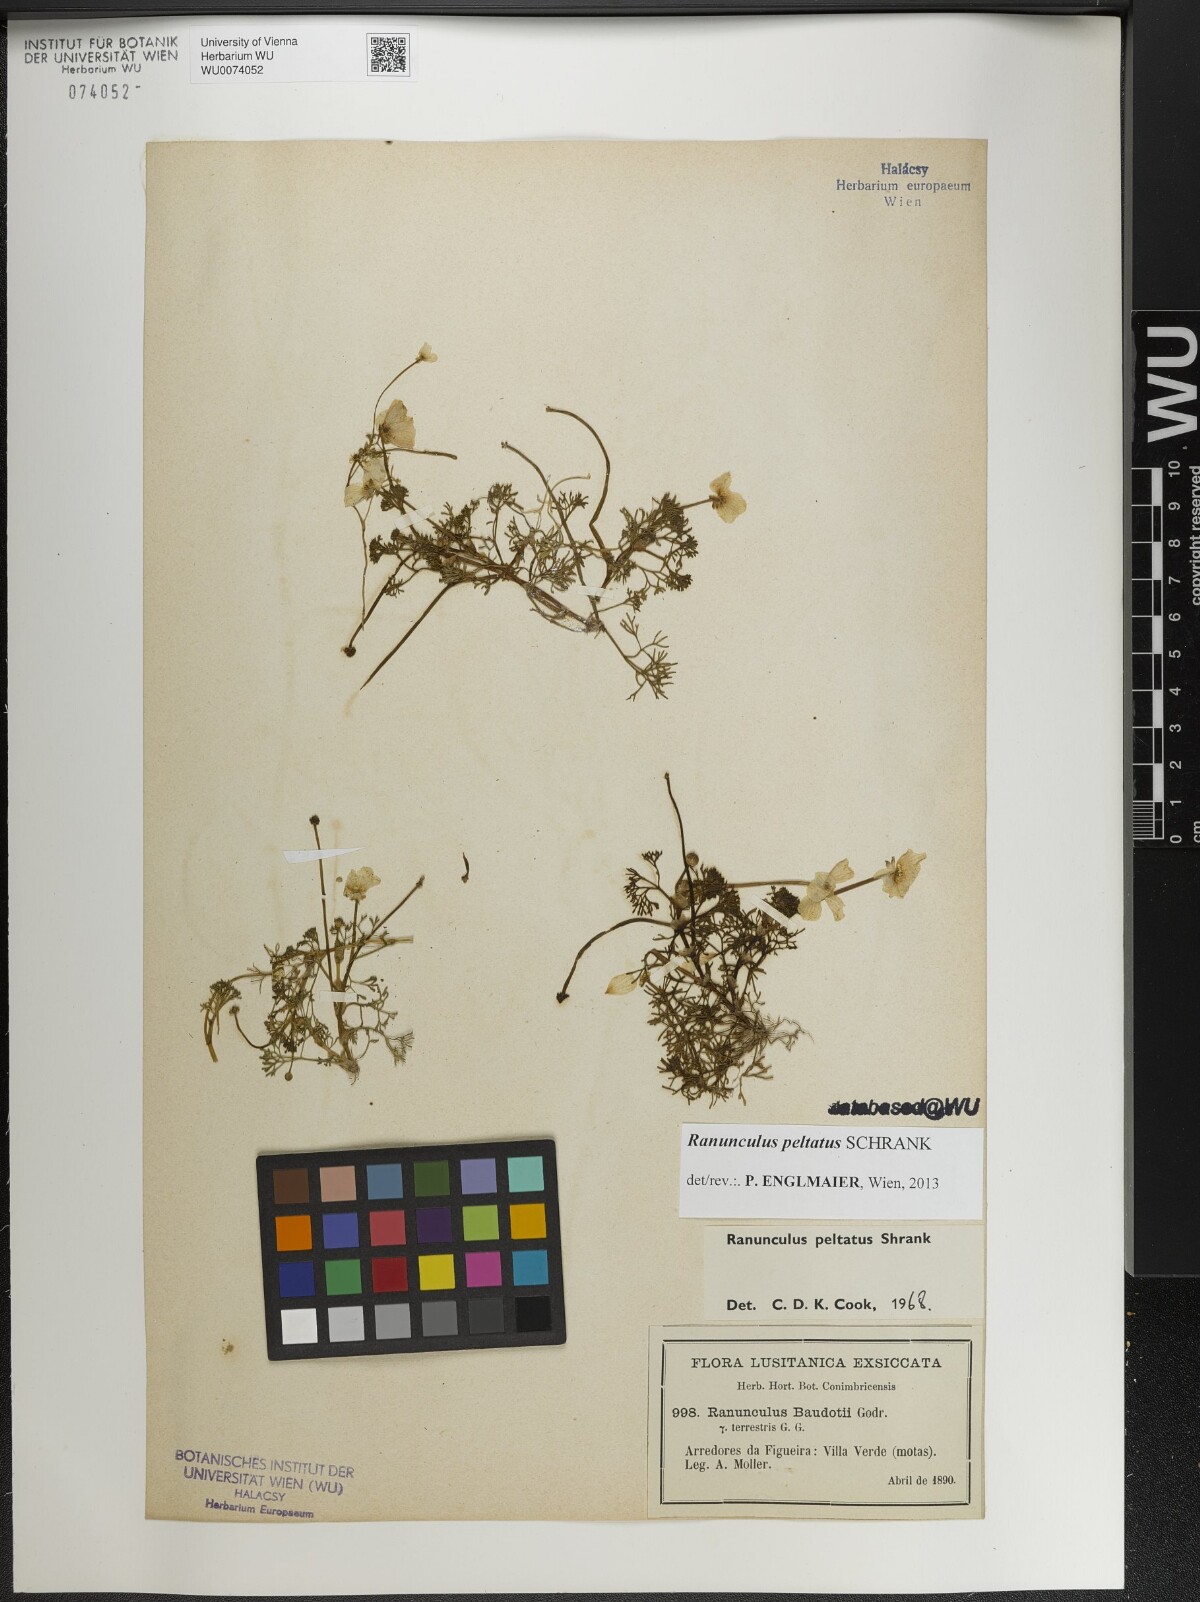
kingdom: Plantae
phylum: Tracheophyta
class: Magnoliopsida
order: Ranunculales
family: Ranunculaceae
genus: Ranunculus
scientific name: Ranunculus peltatus
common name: Pond water-crowfoot
